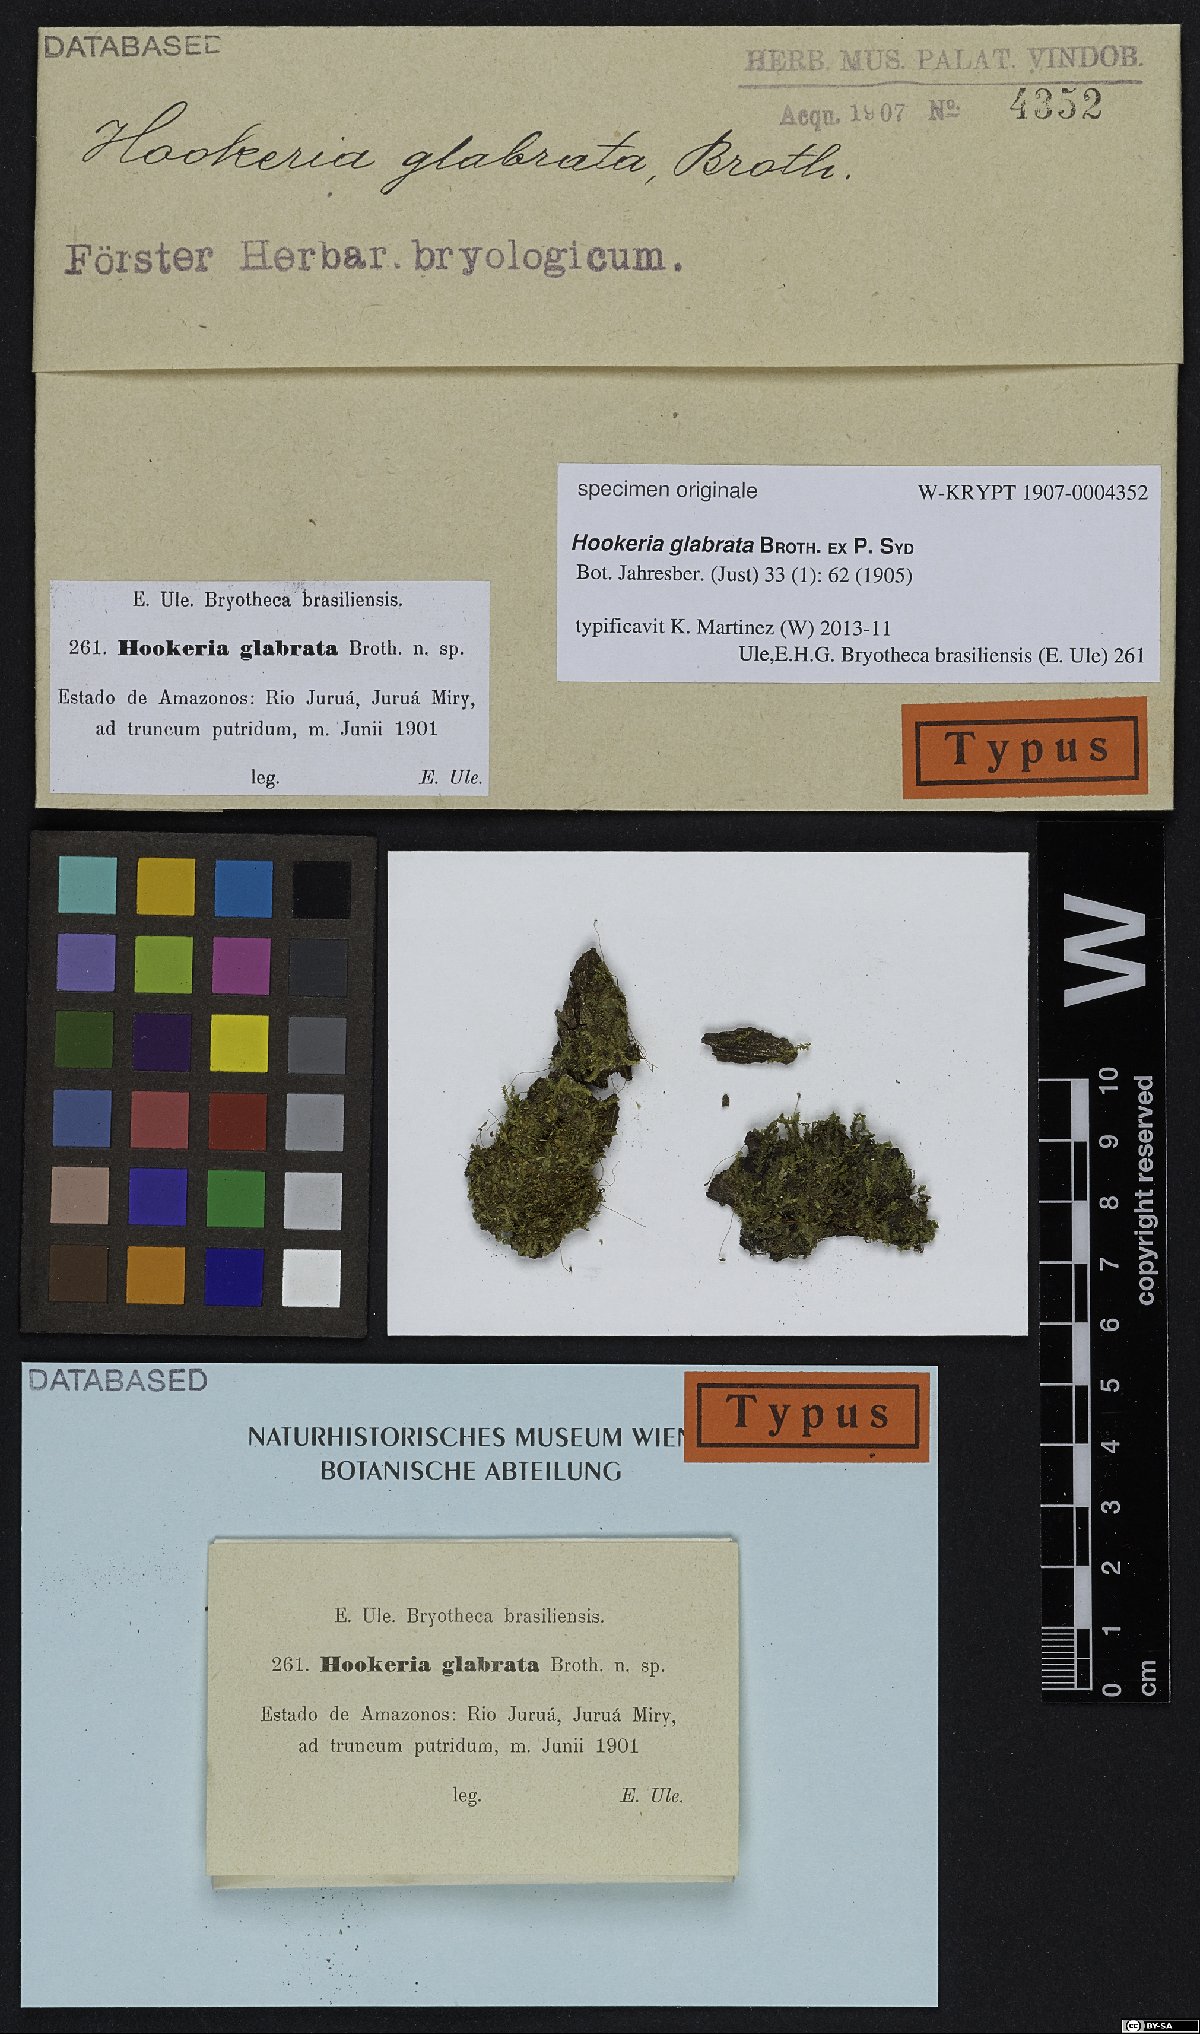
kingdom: Plantae
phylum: Bryophyta
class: Bryopsida
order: Hookeriales
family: Hookeriaceae
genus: Hookeria
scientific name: Hookeria
